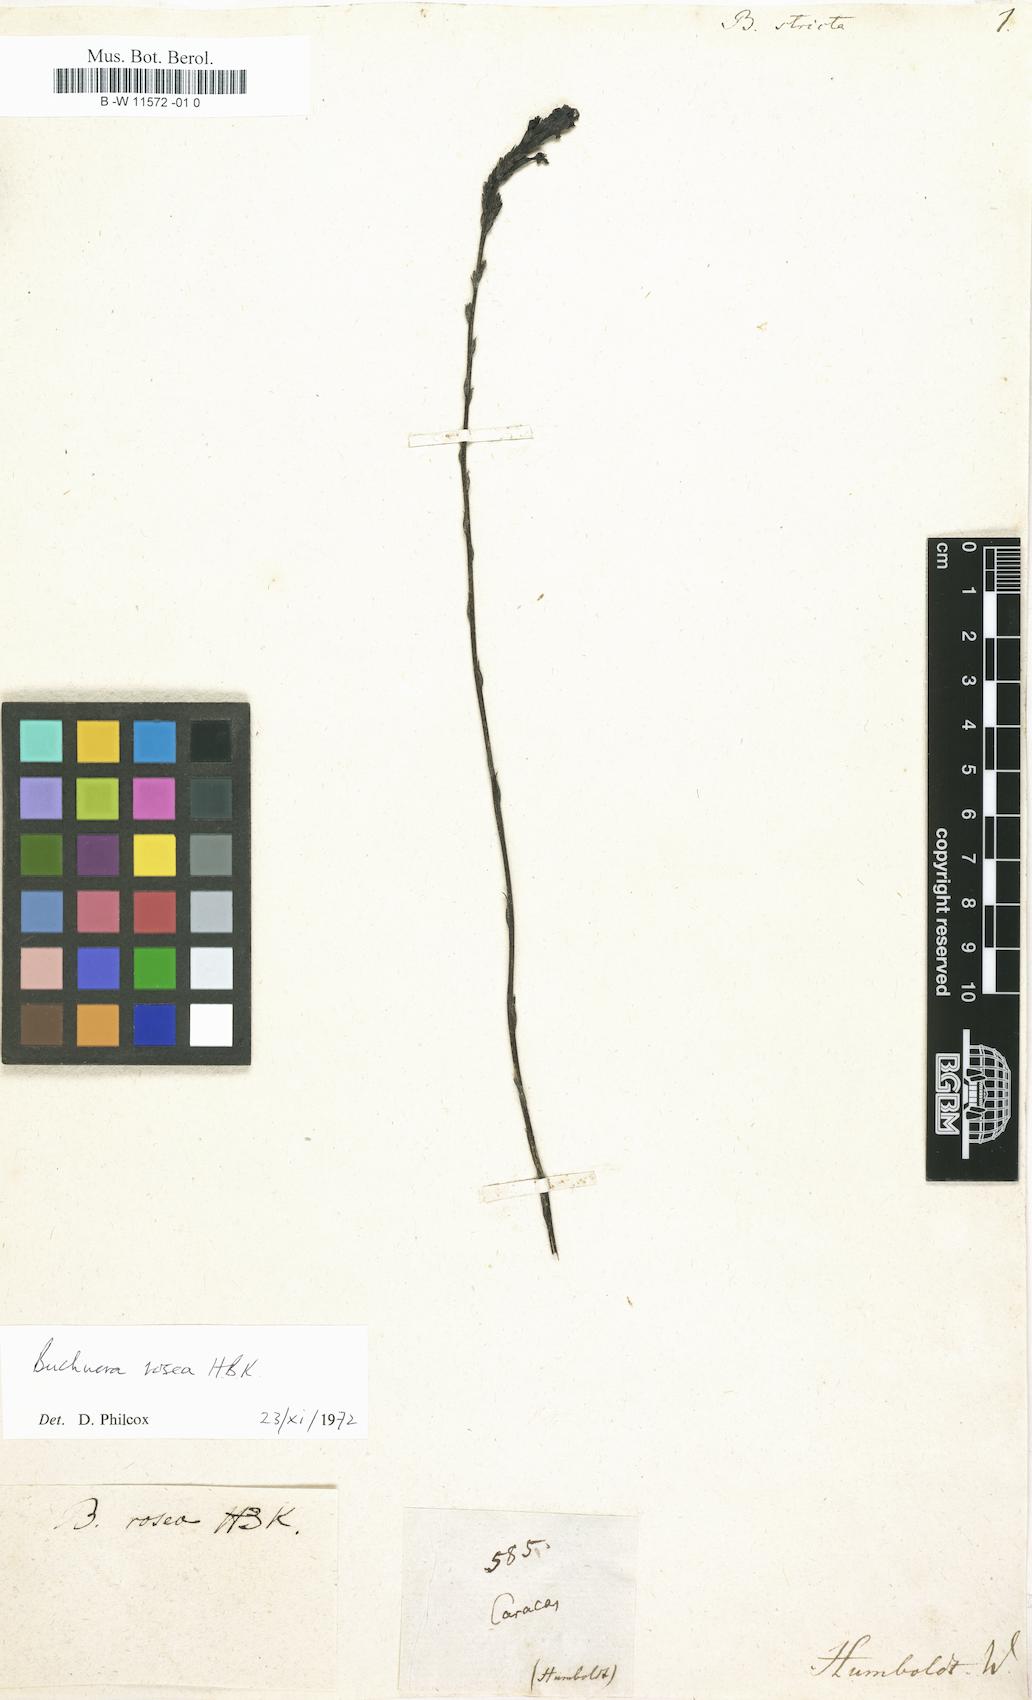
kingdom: Plantae
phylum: Tracheophyta
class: Magnoliopsida
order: Lamiales
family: Orobanchaceae
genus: Buchnera
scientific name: Buchnera cruciata
